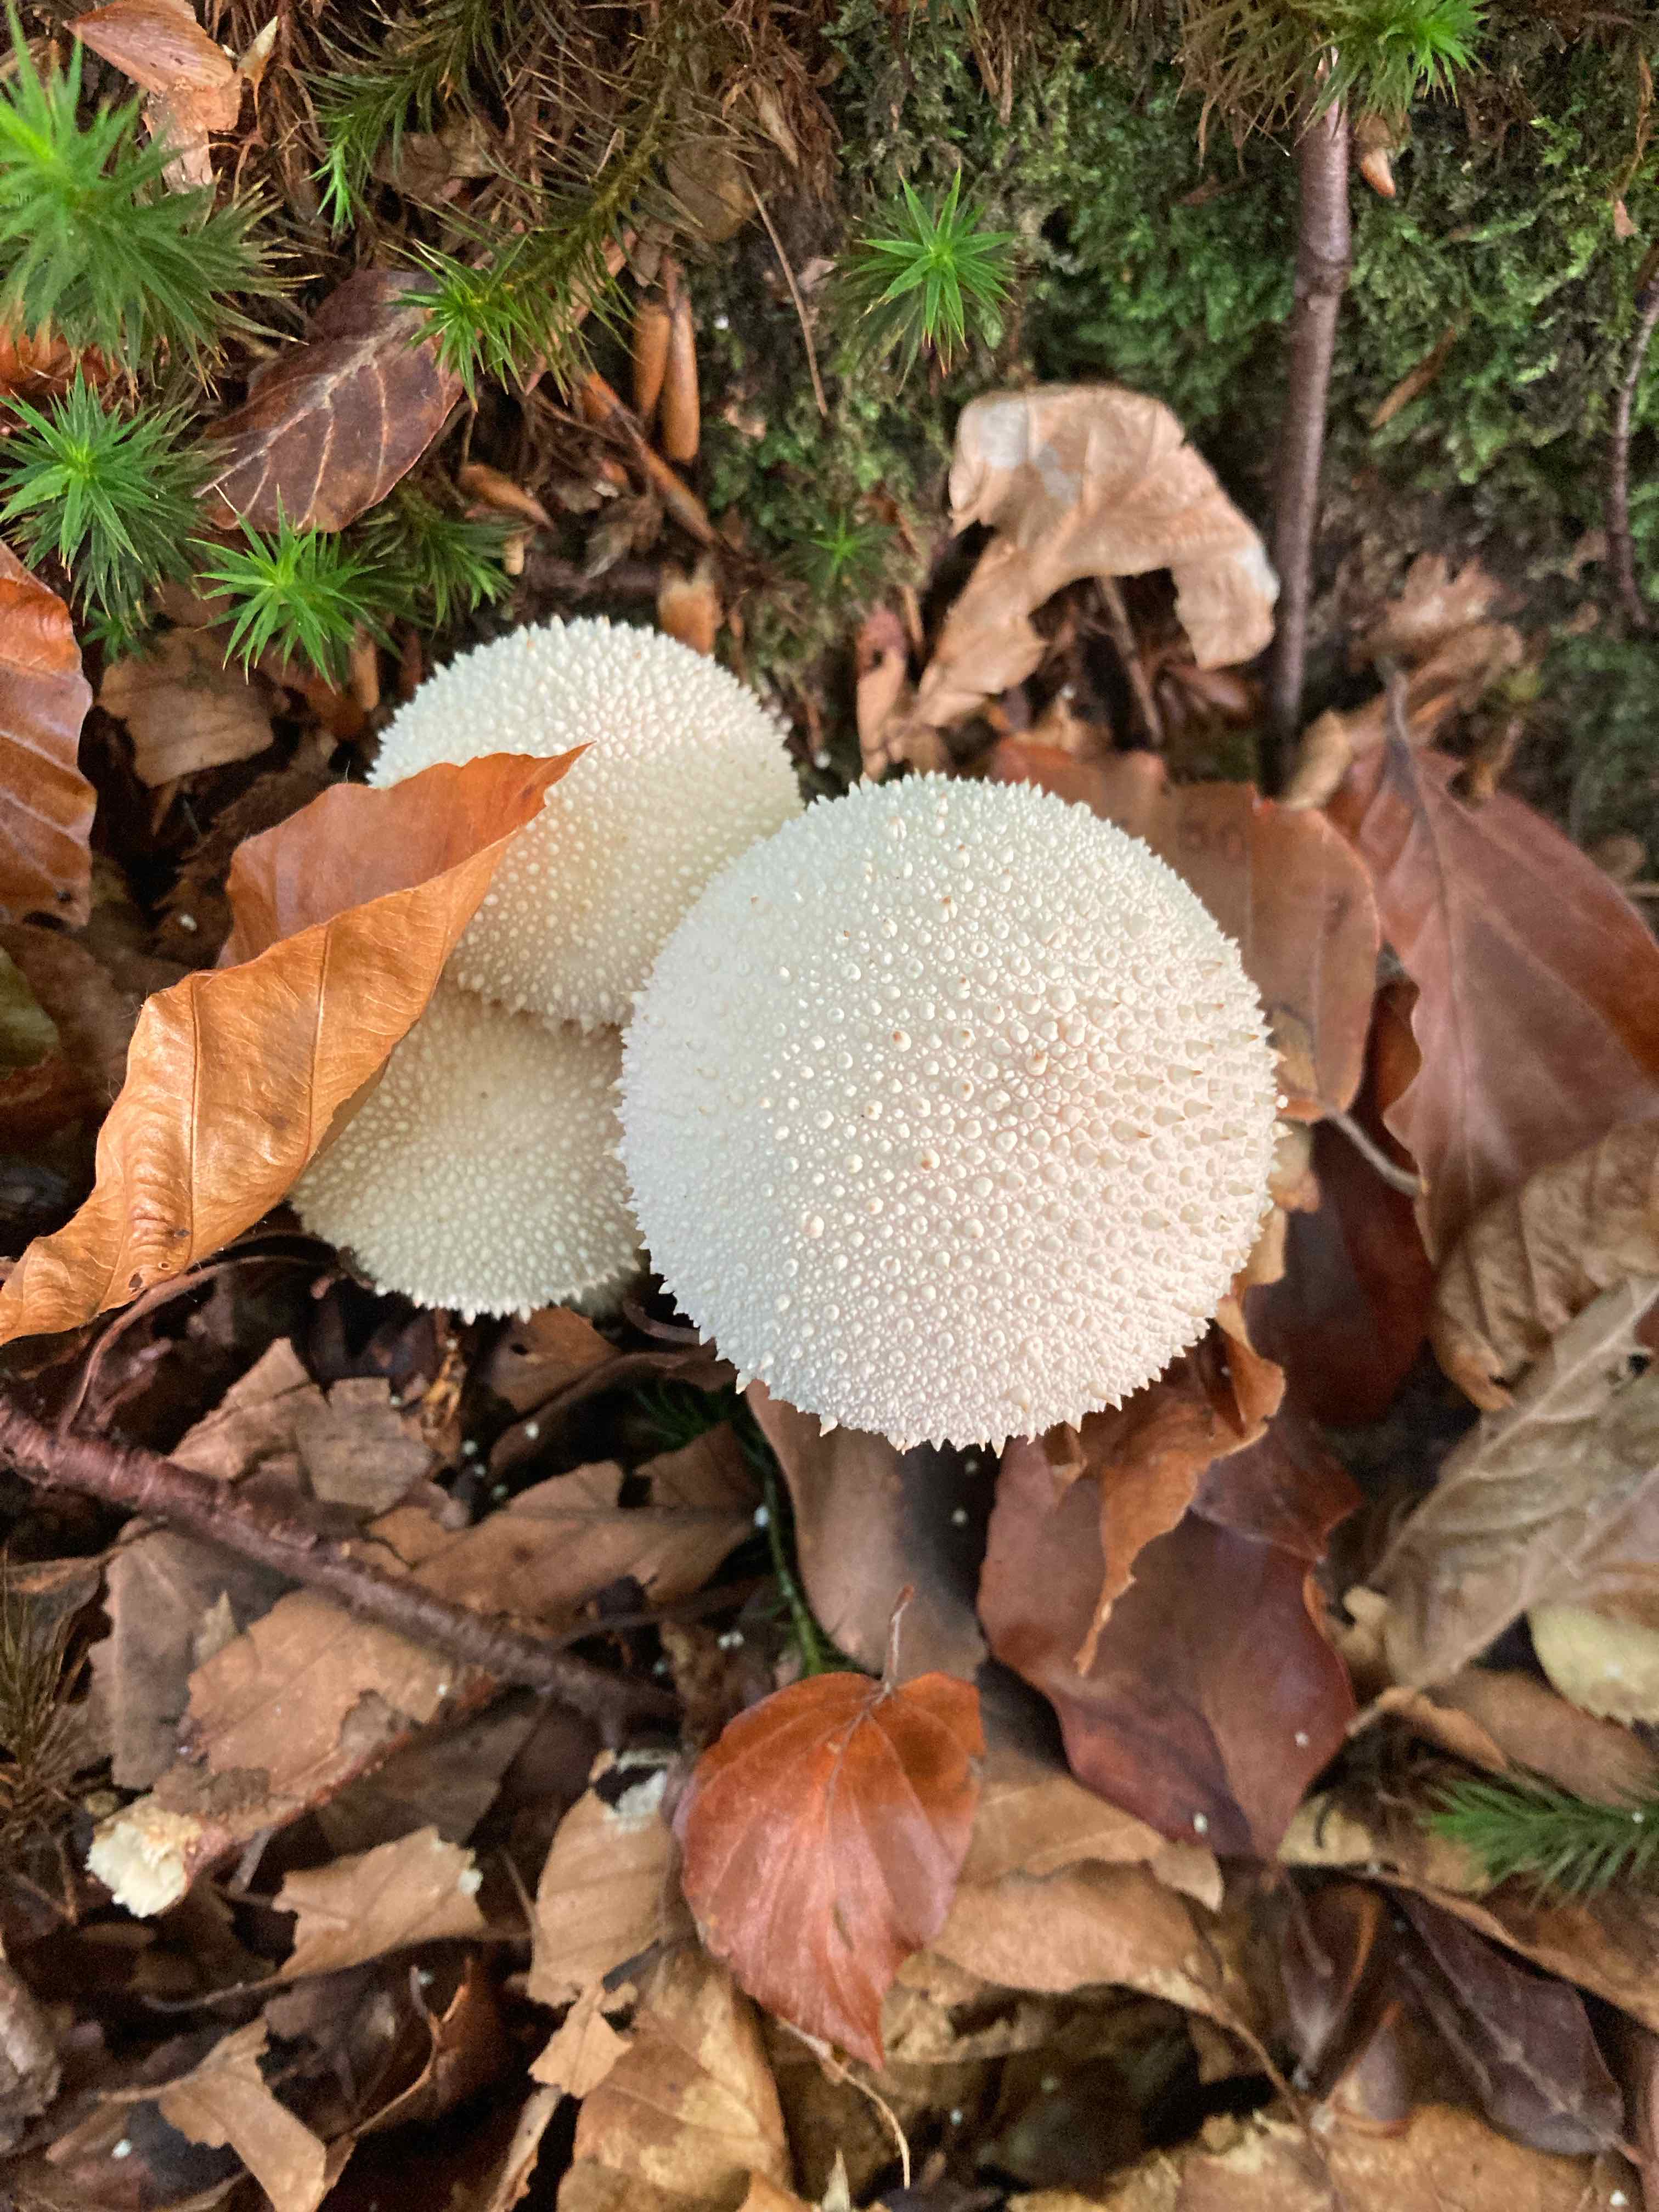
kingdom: Fungi
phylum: Basidiomycota
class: Agaricomycetes
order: Agaricales
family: Lycoperdaceae
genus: Lycoperdon
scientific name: Lycoperdon perlatum
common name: krystal-støvbold
